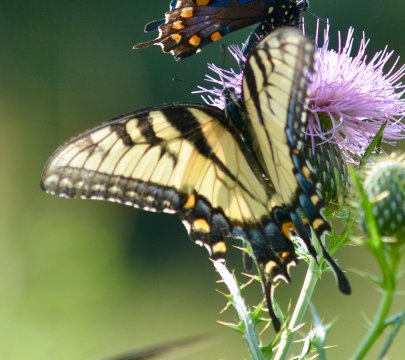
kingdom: Animalia
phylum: Arthropoda
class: Insecta
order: Lepidoptera
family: Papilionidae
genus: Pterourus
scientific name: Pterourus glaucus
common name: Eastern Tiger Swallowtail
